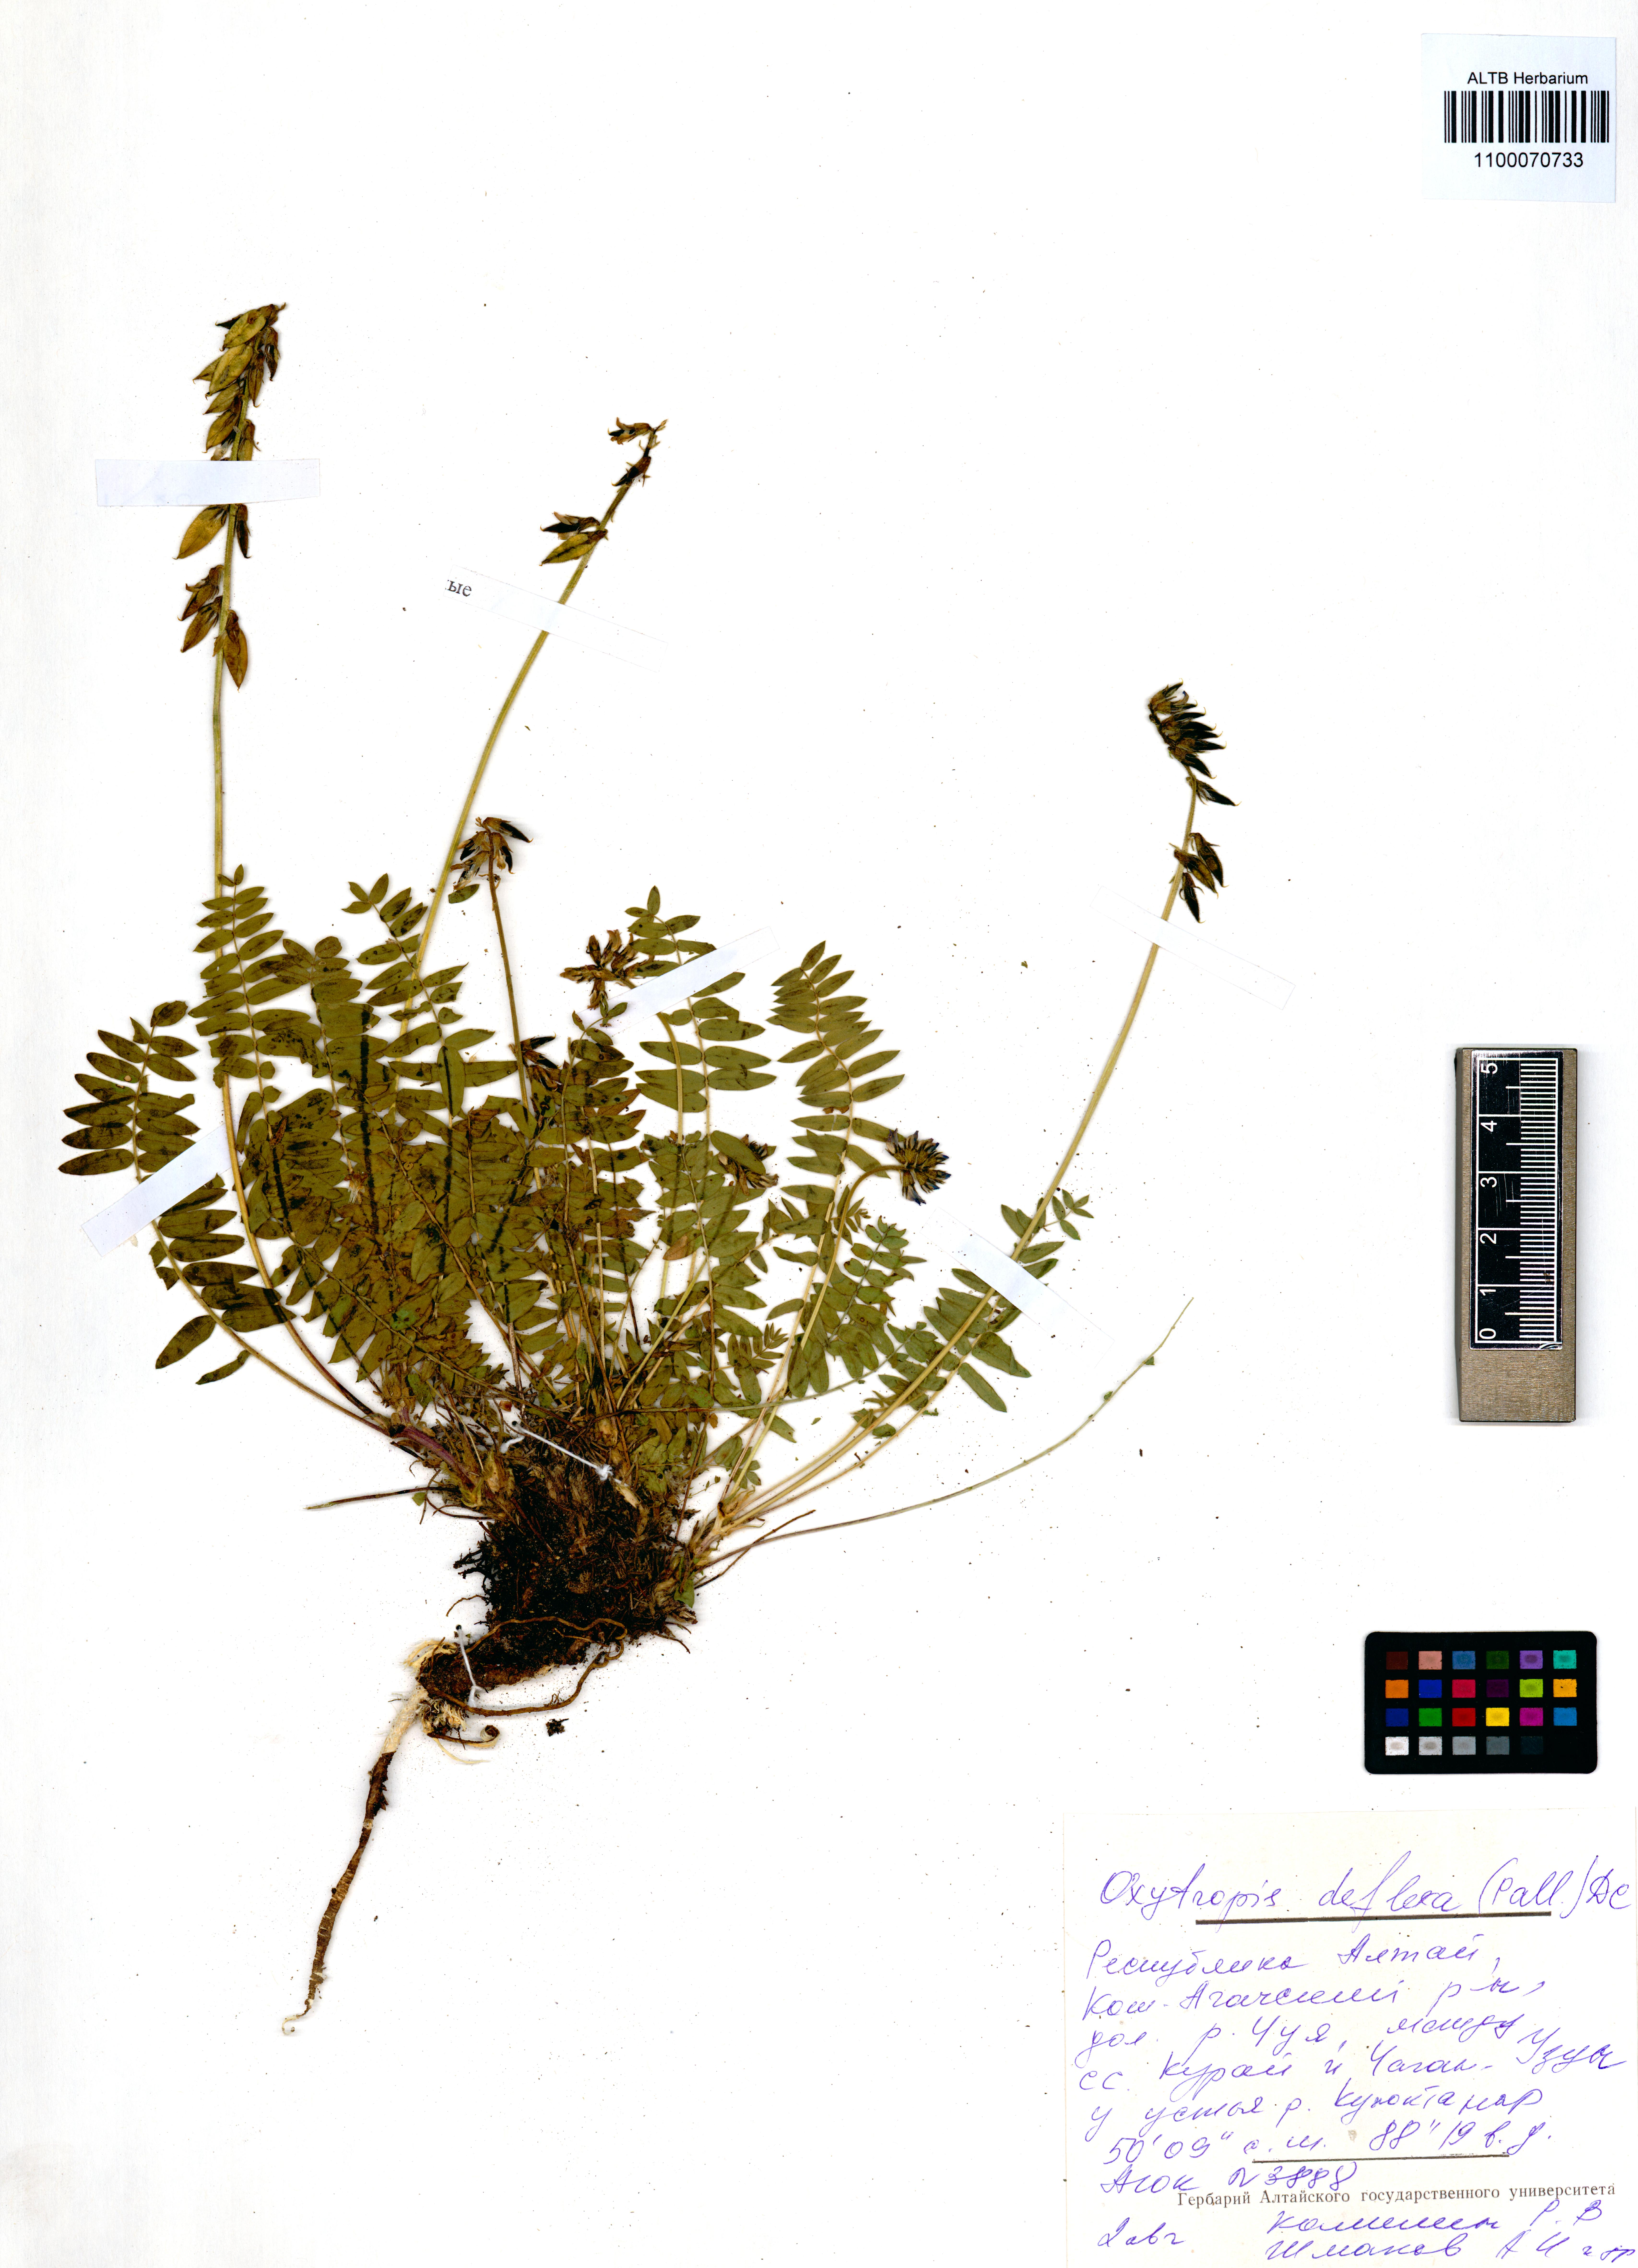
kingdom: Plantae
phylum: Tracheophyta
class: Magnoliopsida
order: Fabales
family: Fabaceae
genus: Oxytropis
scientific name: Oxytropis deflexa
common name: Stemmed oxytrope
